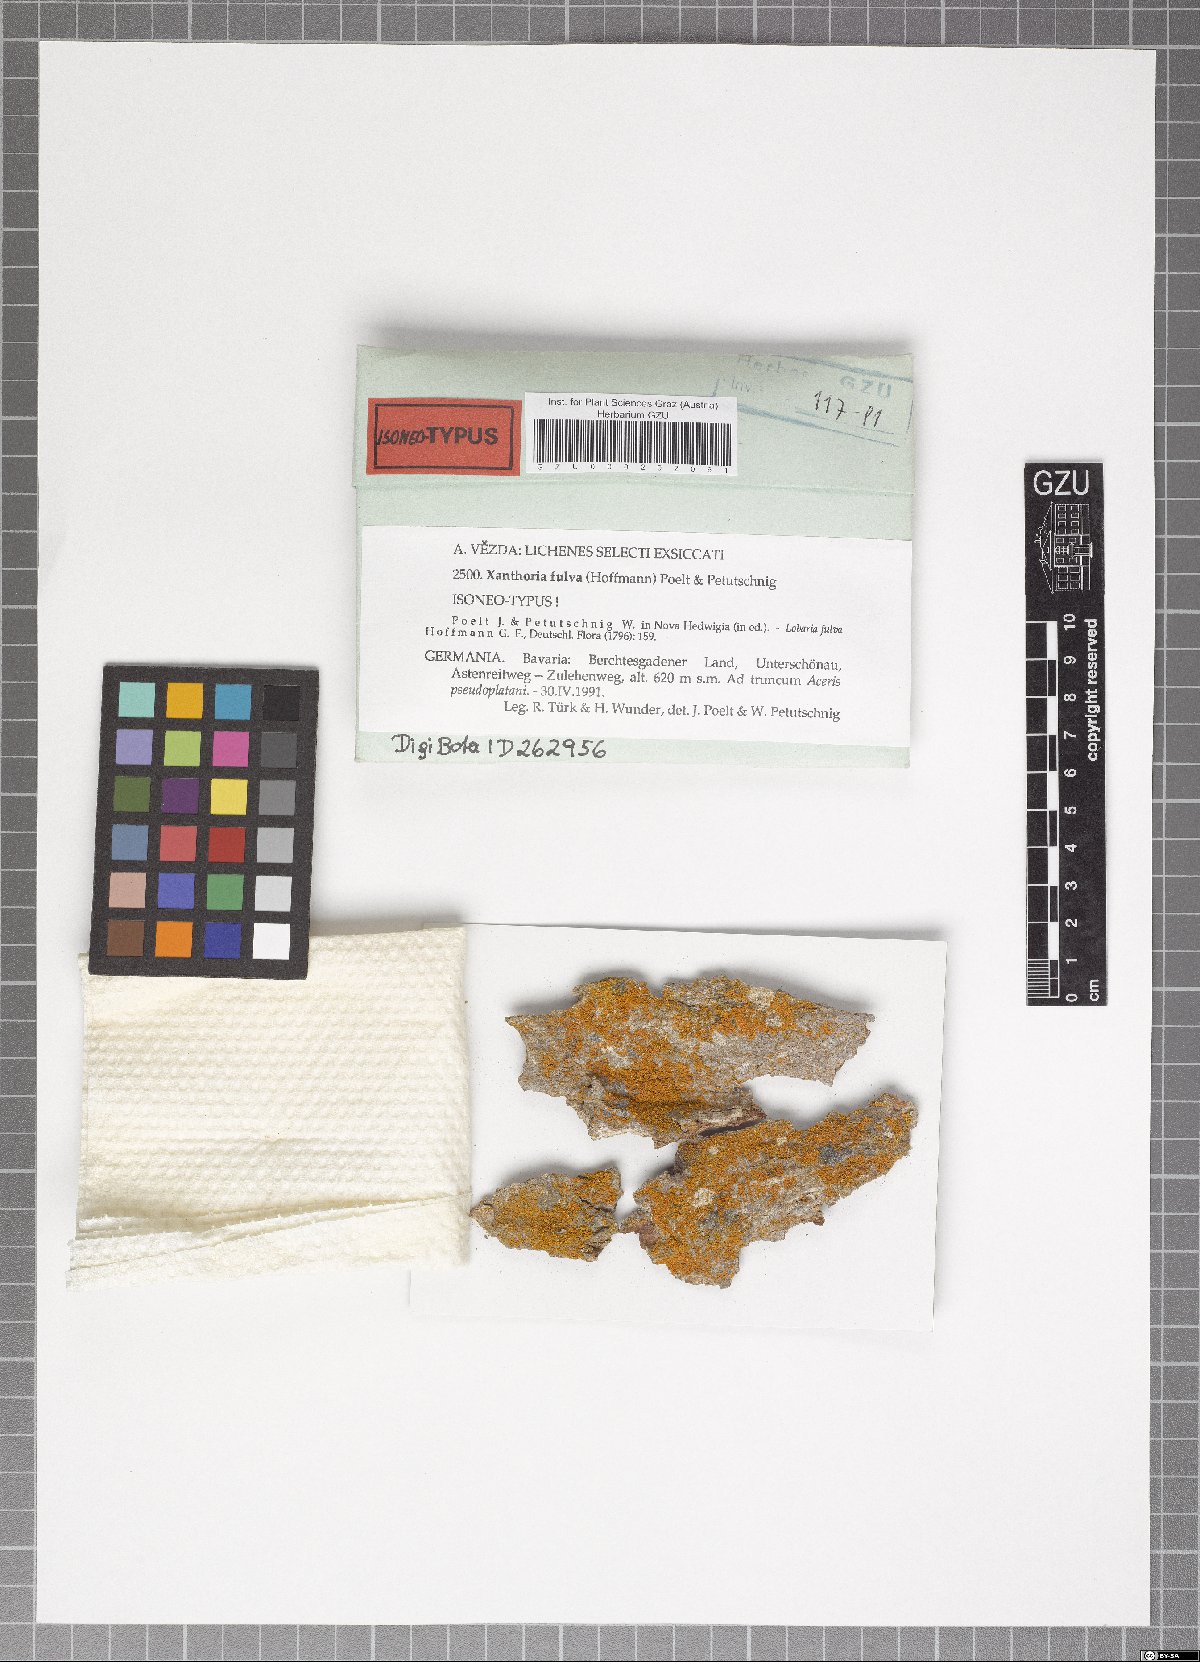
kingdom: Fungi
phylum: Ascomycota
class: Lecanoromycetes
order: Teloschistales
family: Teloschistaceae
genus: Gallowayella
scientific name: Gallowayella fulva
